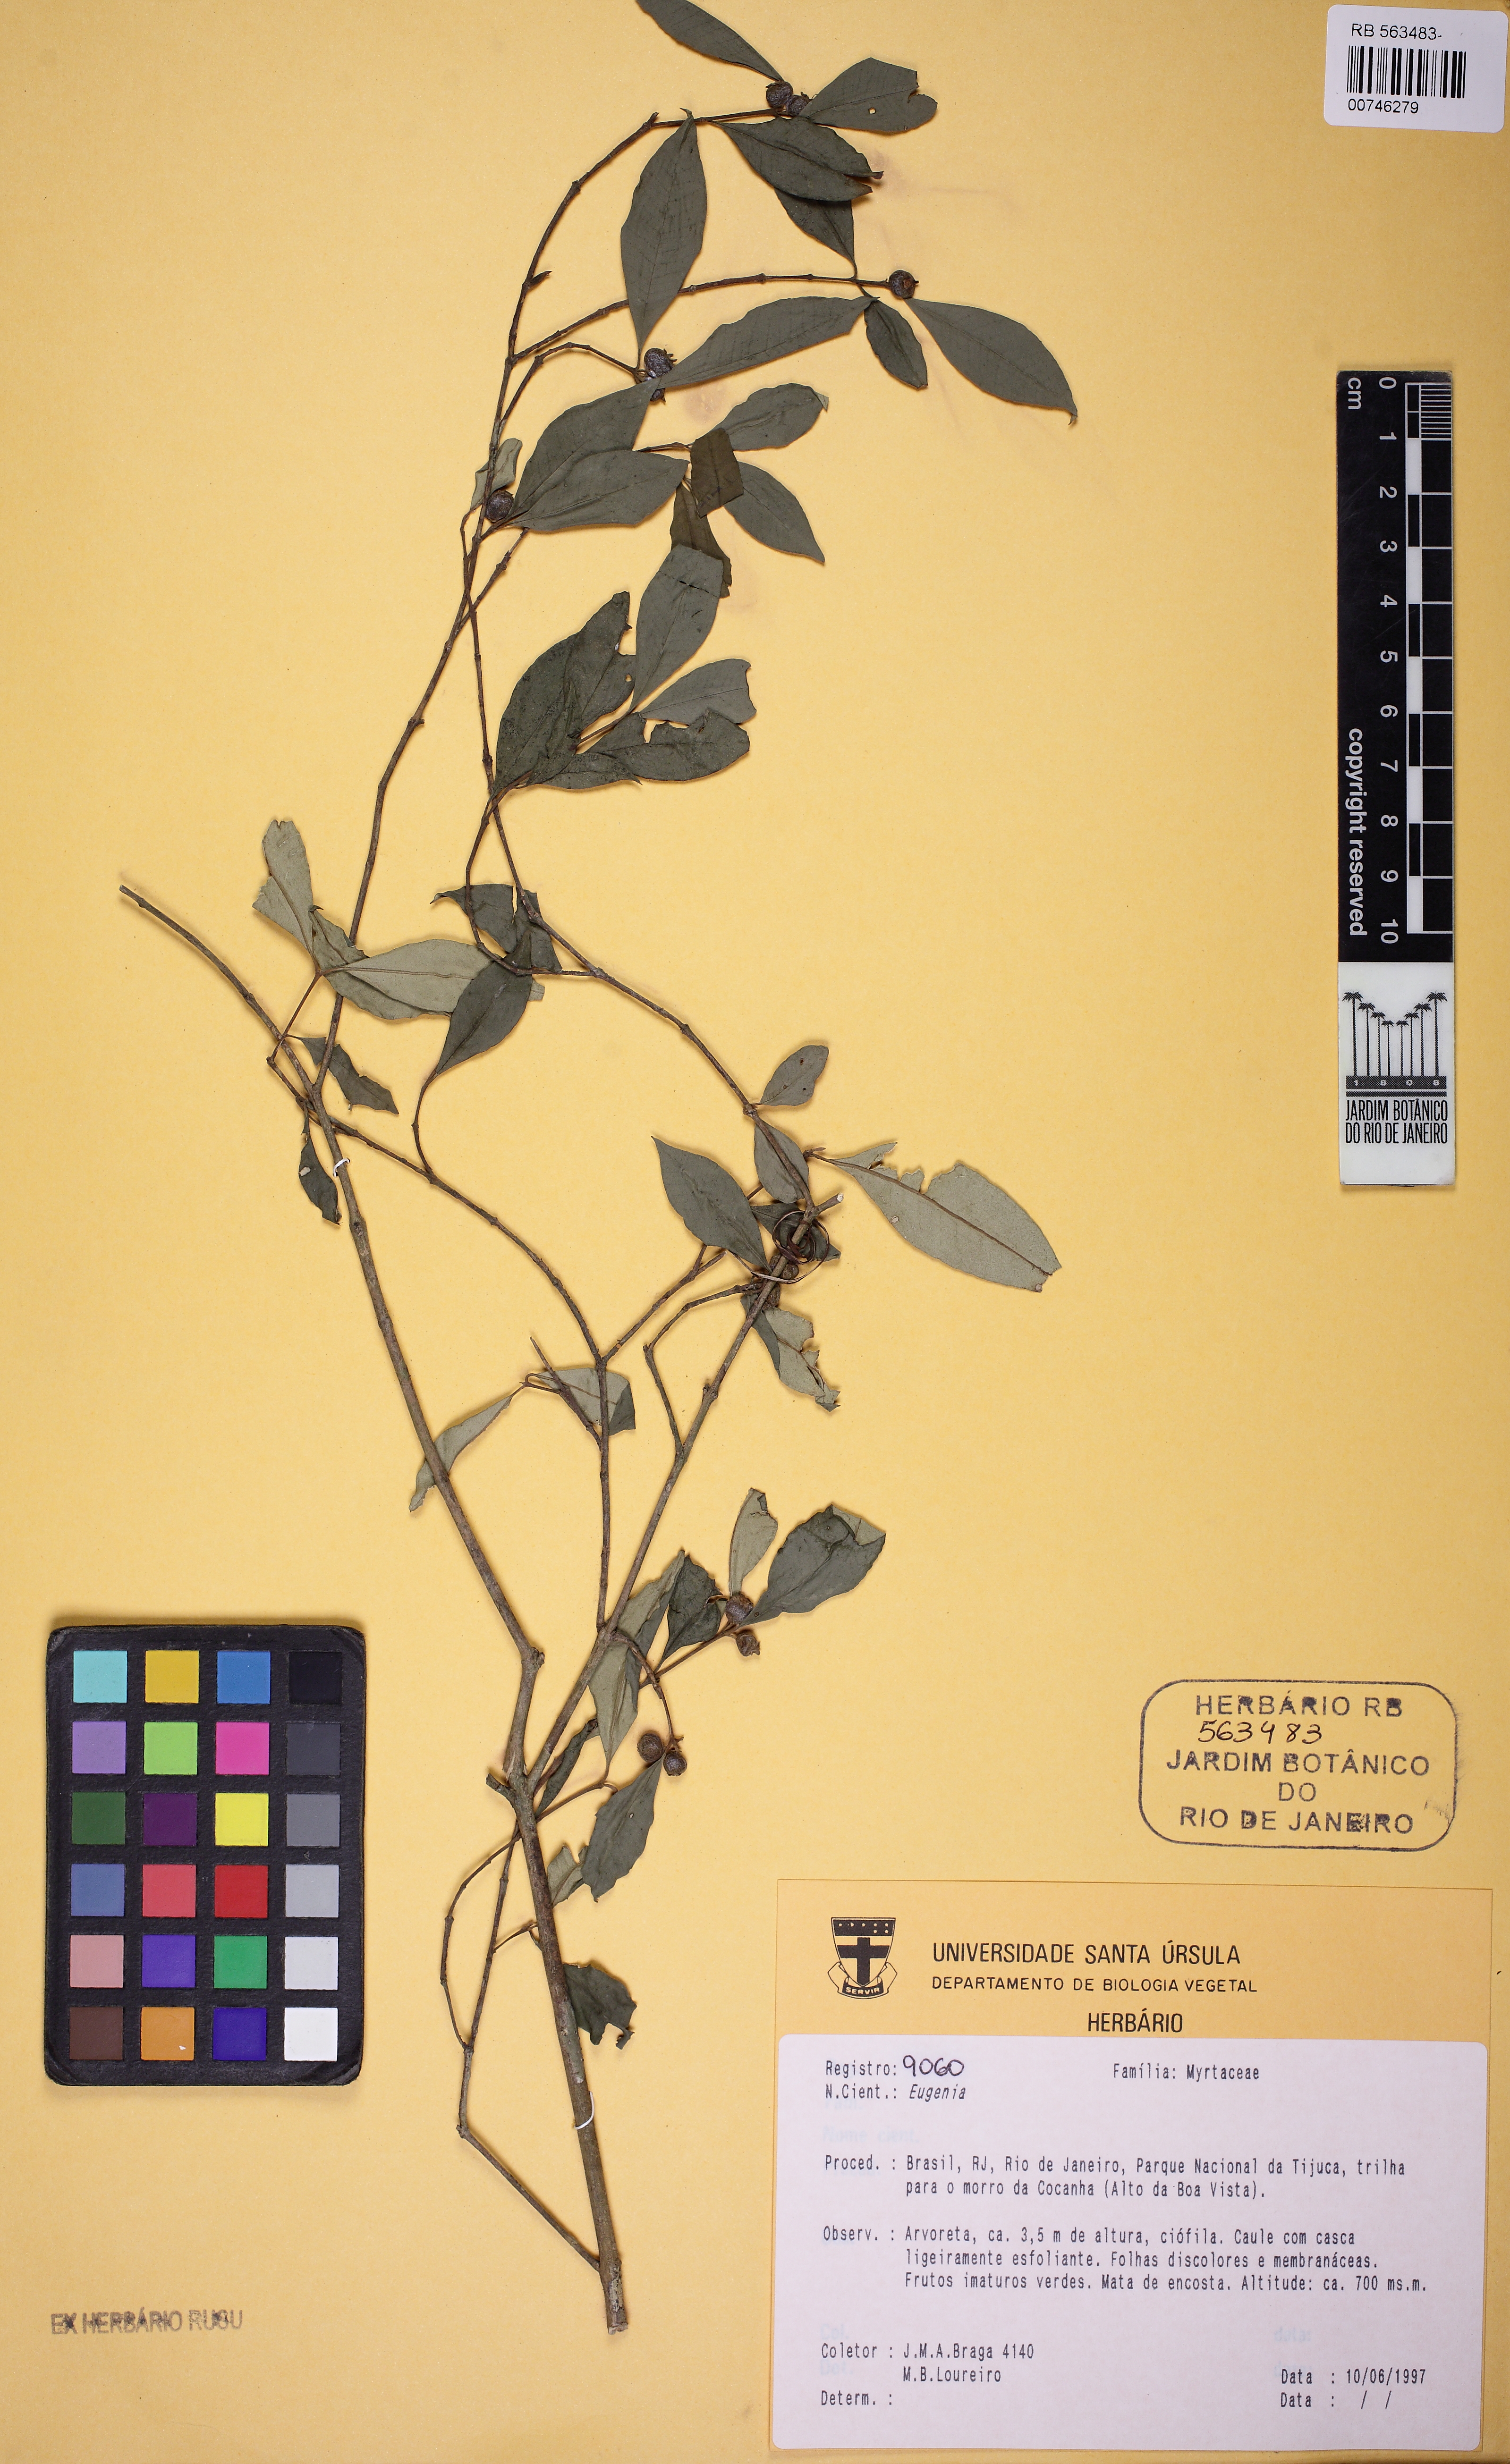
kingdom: Plantae
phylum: Tracheophyta
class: Magnoliopsida
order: Myrtales
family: Myrtaceae
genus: Myrceugenia
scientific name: Myrceugenia
